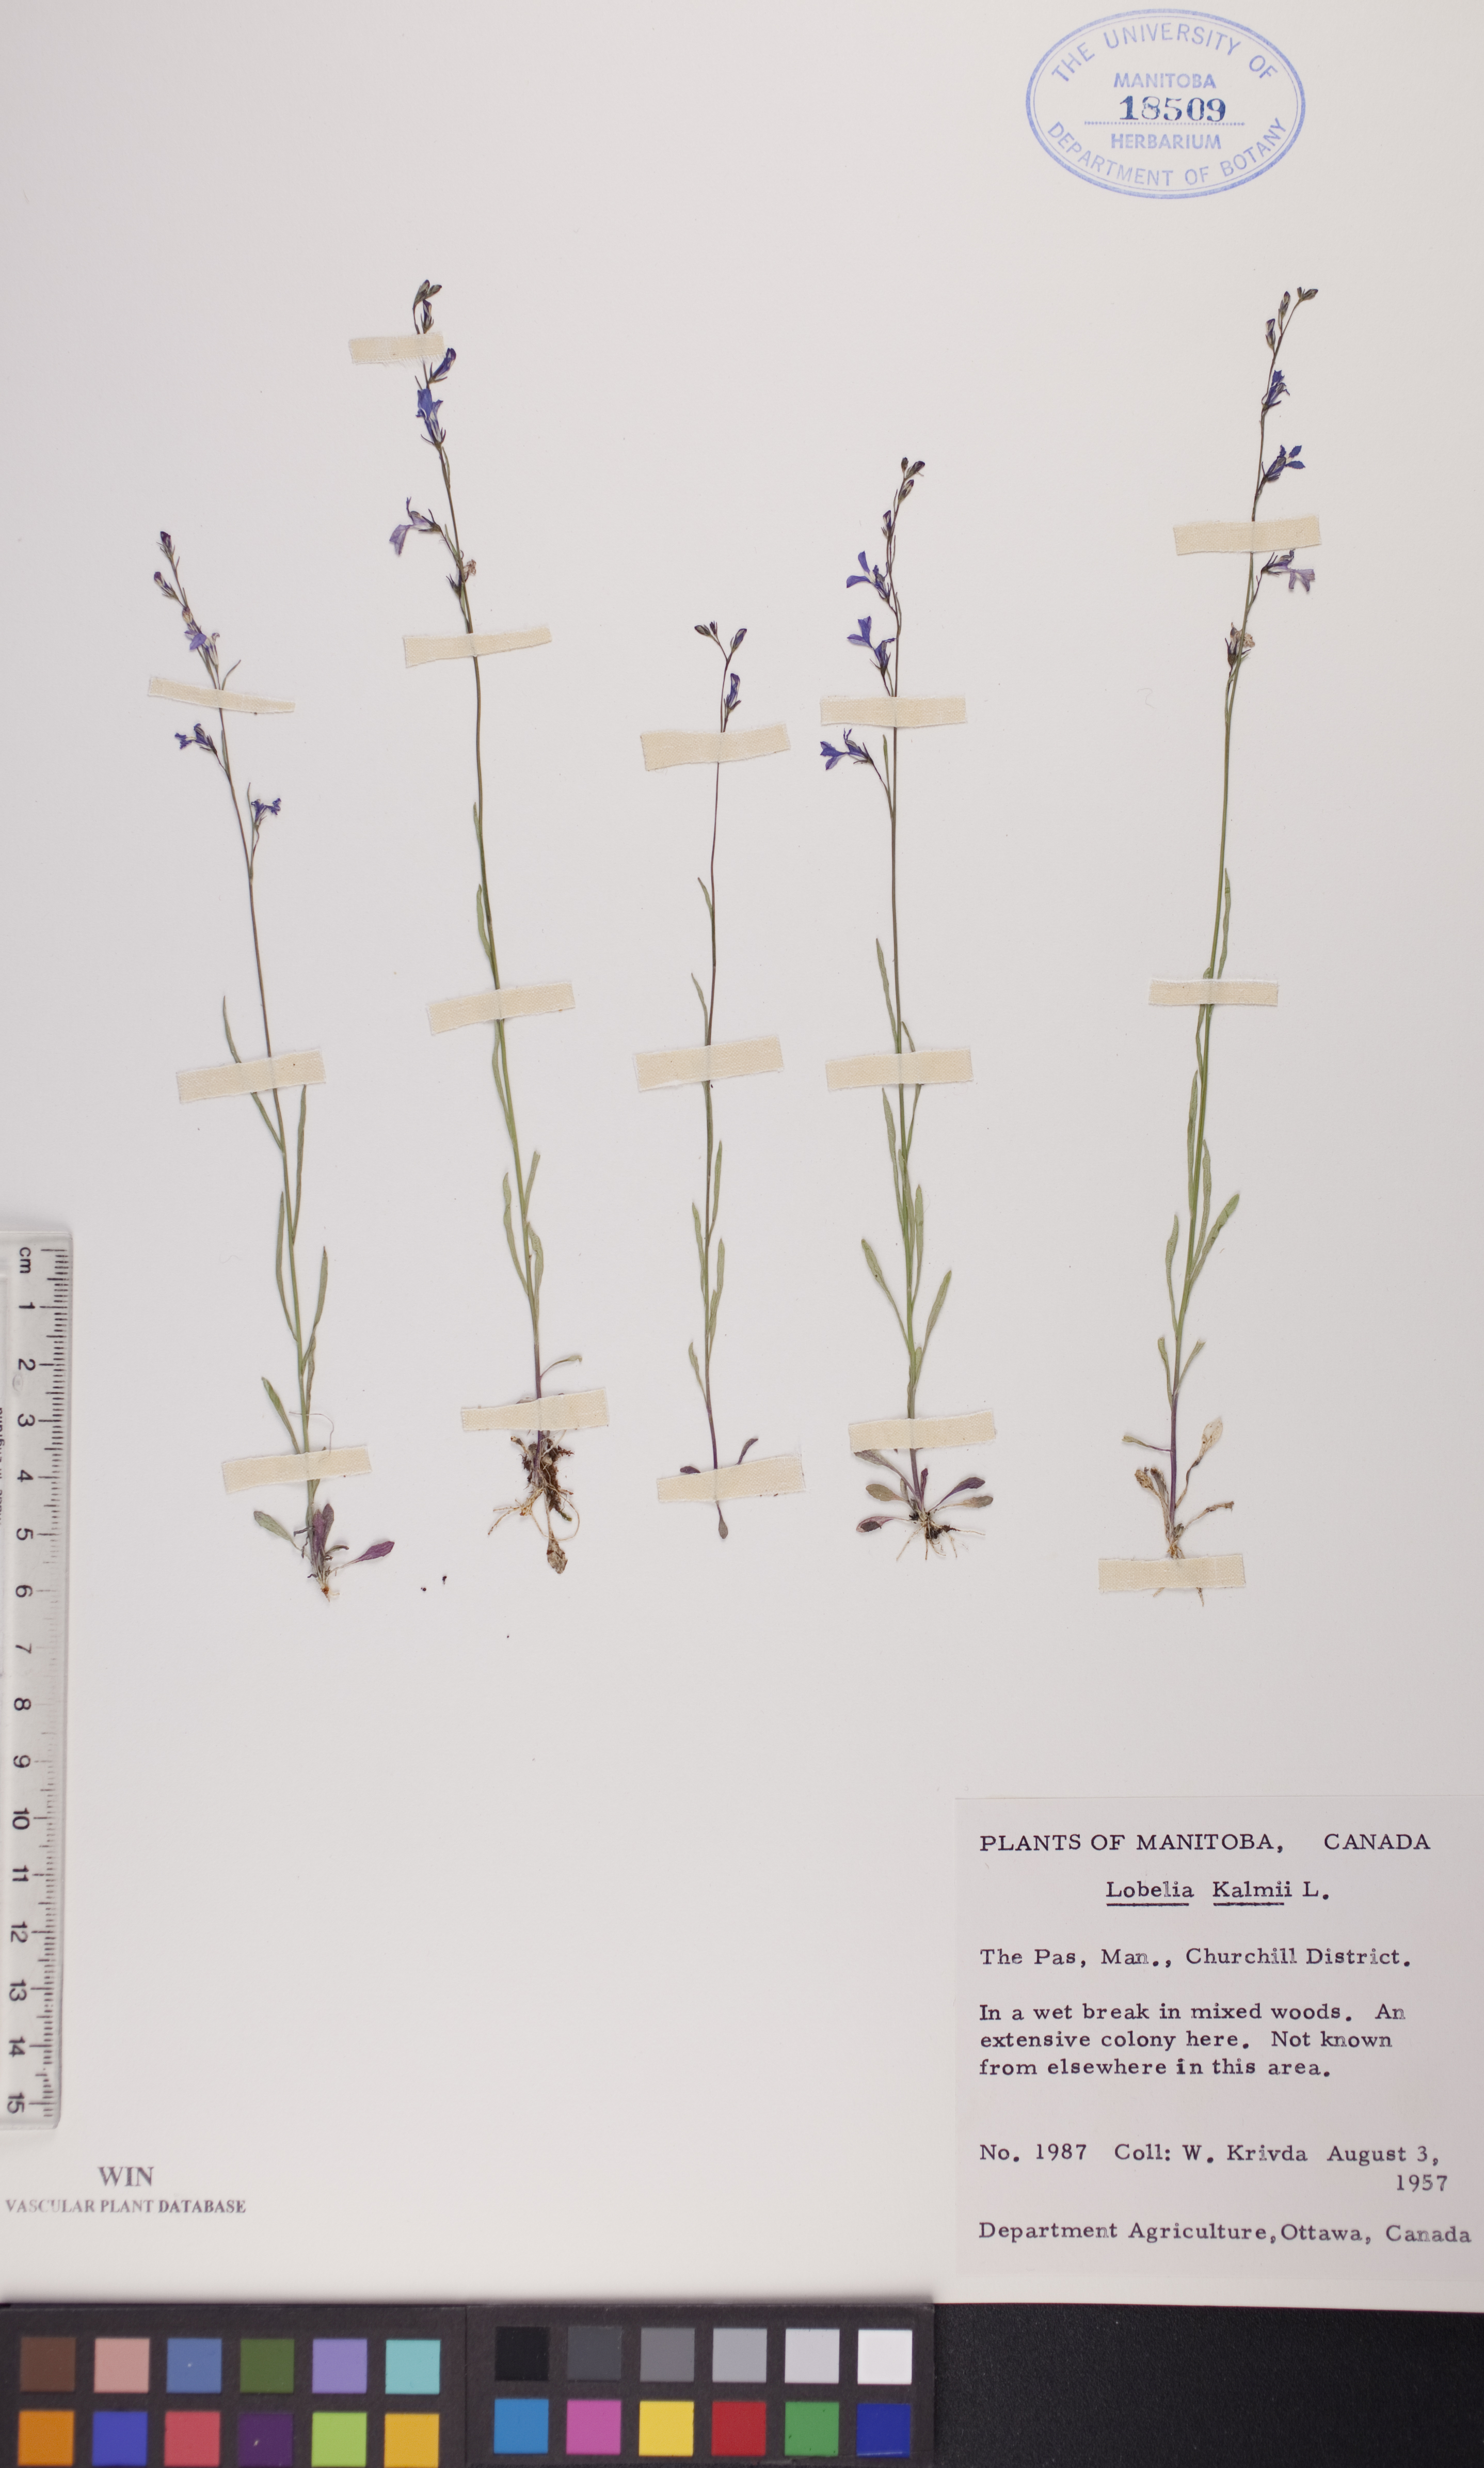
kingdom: Plantae
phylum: Tracheophyta
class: Magnoliopsida
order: Asterales
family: Campanulaceae
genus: Lobelia
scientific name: Lobelia kalmii
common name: Kalm's lobelia
